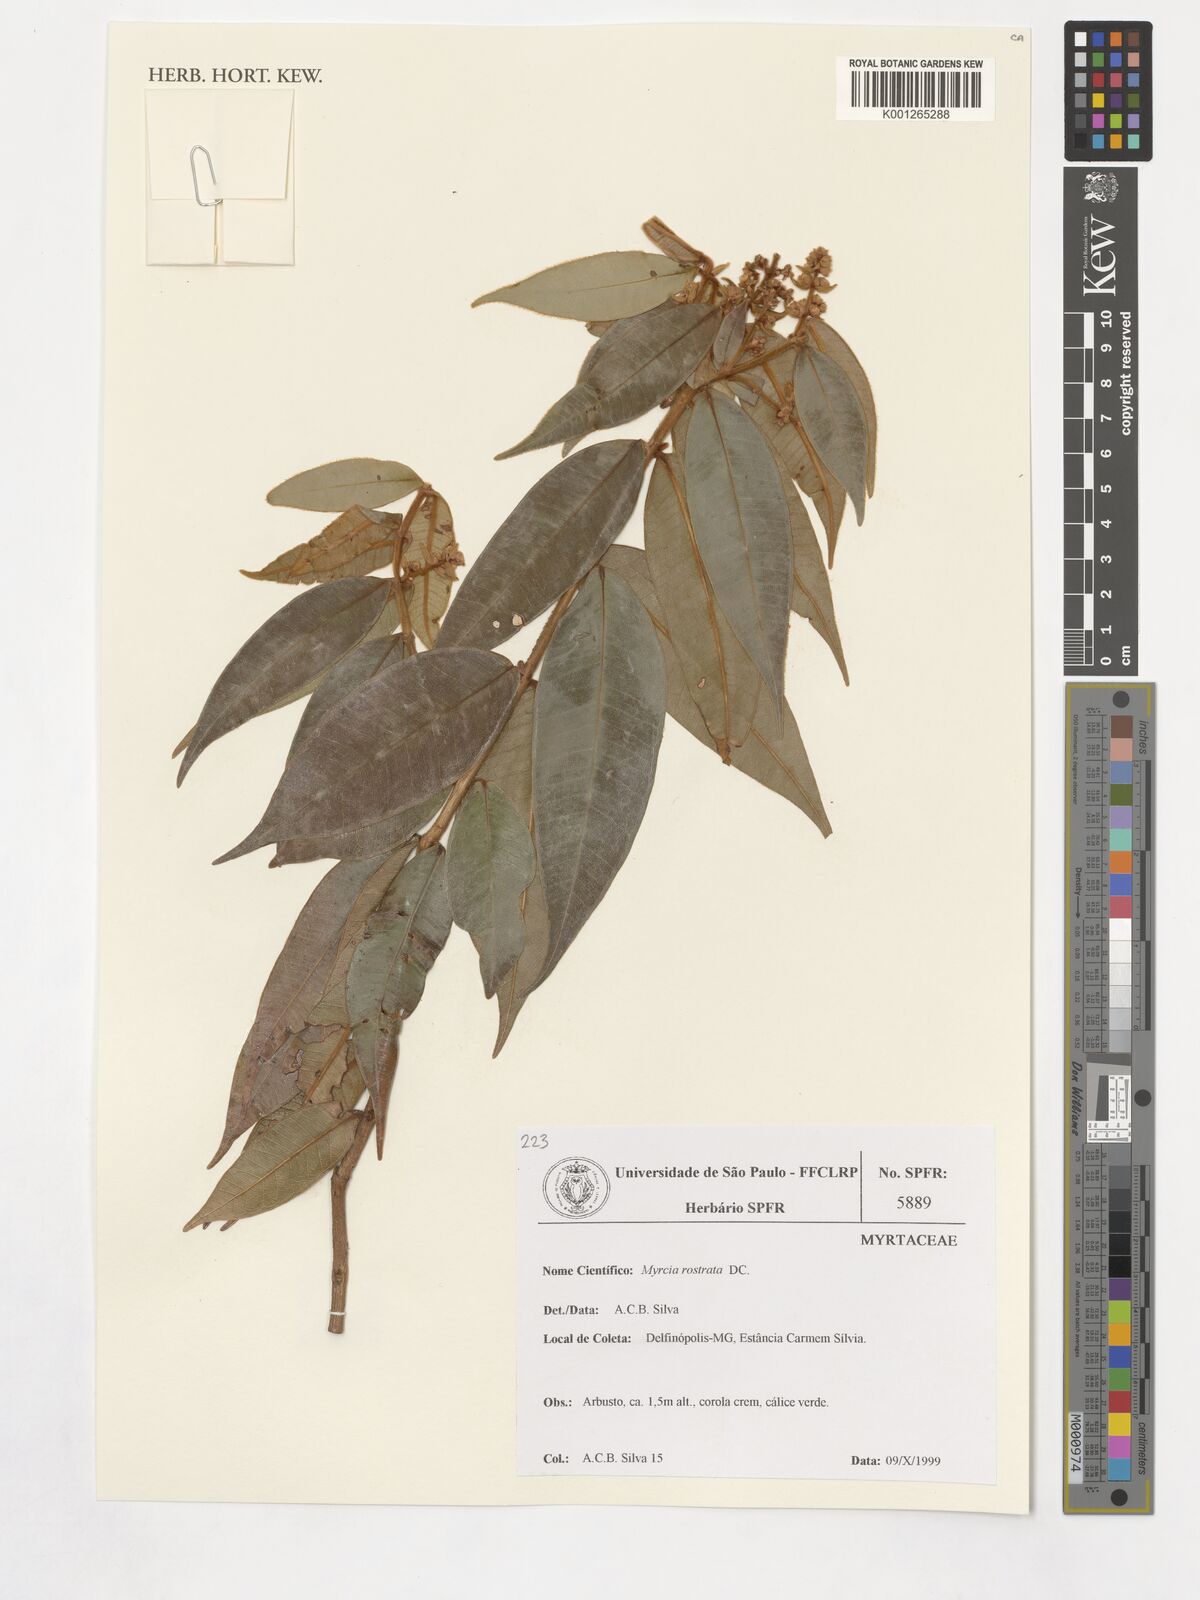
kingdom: Plantae
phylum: Tracheophyta
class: Magnoliopsida
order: Myrtales
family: Myrtaceae
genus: Myrcia
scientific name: Myrcia splendens
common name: Surinam cherry
